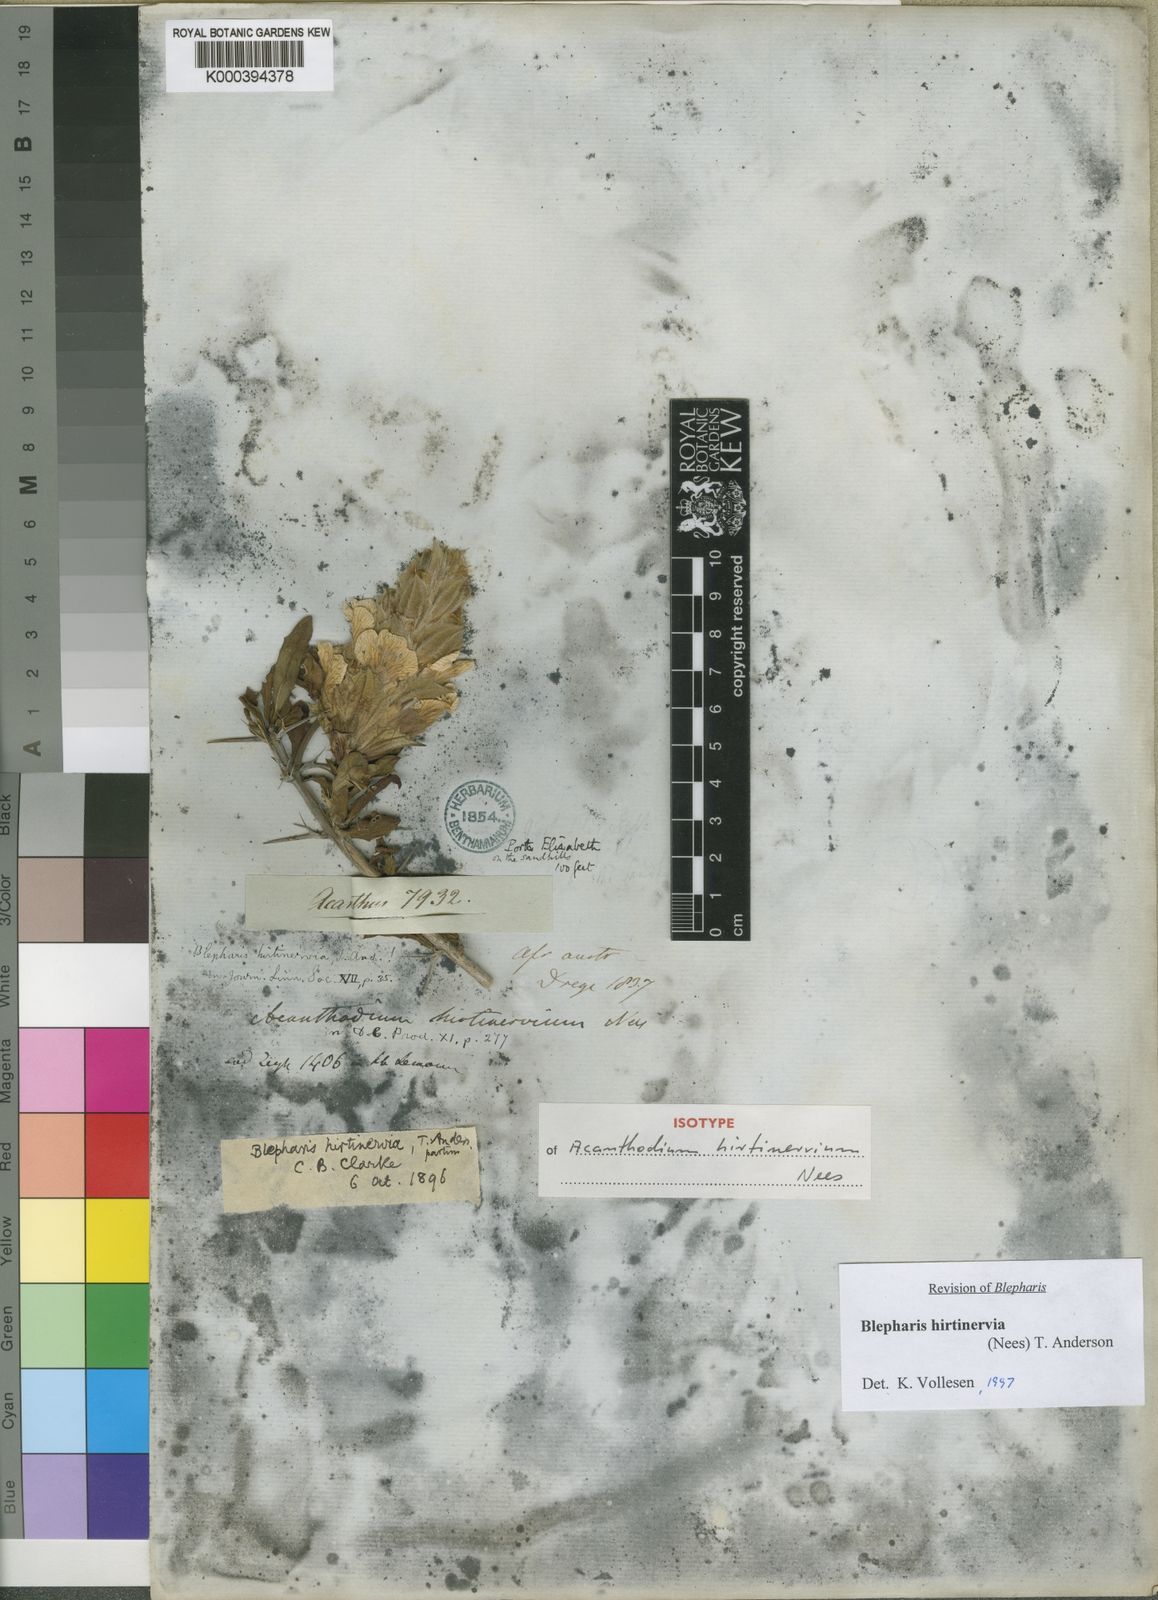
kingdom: Plantae
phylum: Tracheophyta
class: Magnoliopsida
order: Lamiales
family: Acanthaceae
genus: Blepharis
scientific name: Blepharis hirtinervia
